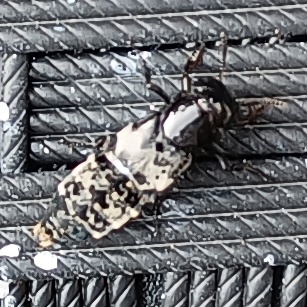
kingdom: Animalia
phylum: Arthropoda
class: Insecta
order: Coleoptera
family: Staphylinidae
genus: Creophilus
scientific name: Creophilus maxillosus
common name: Skrækrovbille
